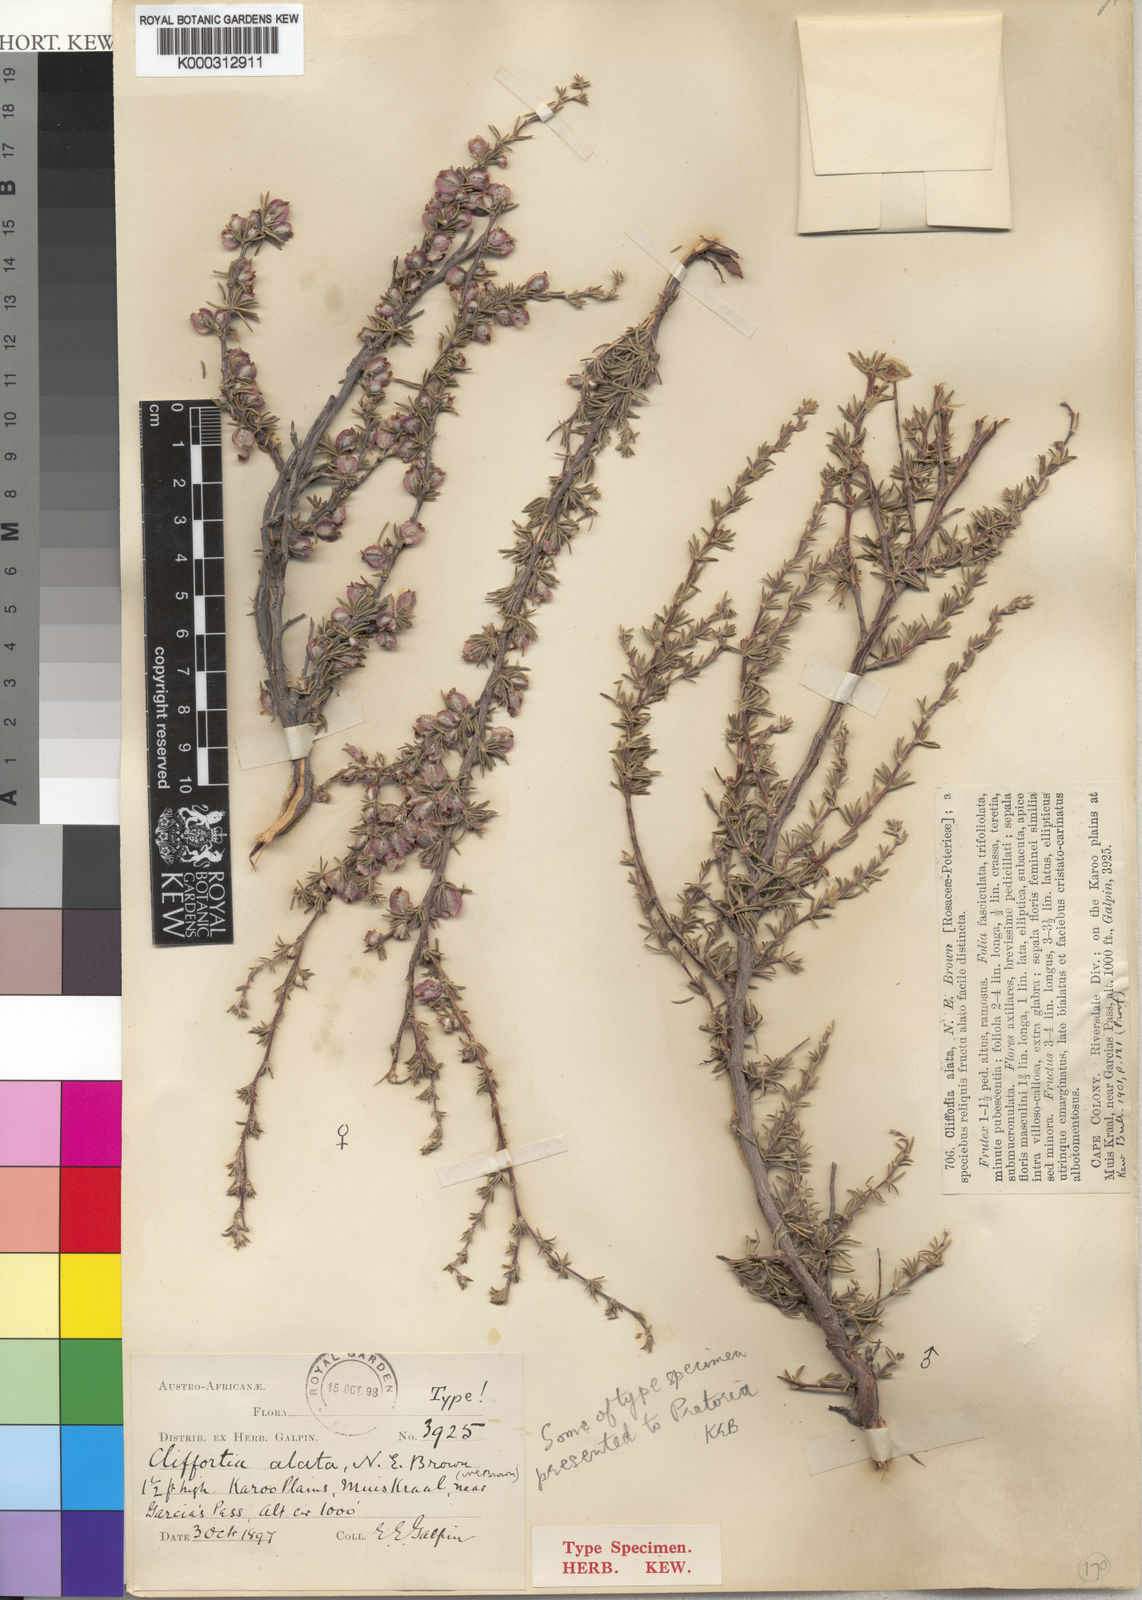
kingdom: Plantae
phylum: Tracheophyta
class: Magnoliopsida
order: Rosales
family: Rosaceae
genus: Cliffortia
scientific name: Cliffortia alata
